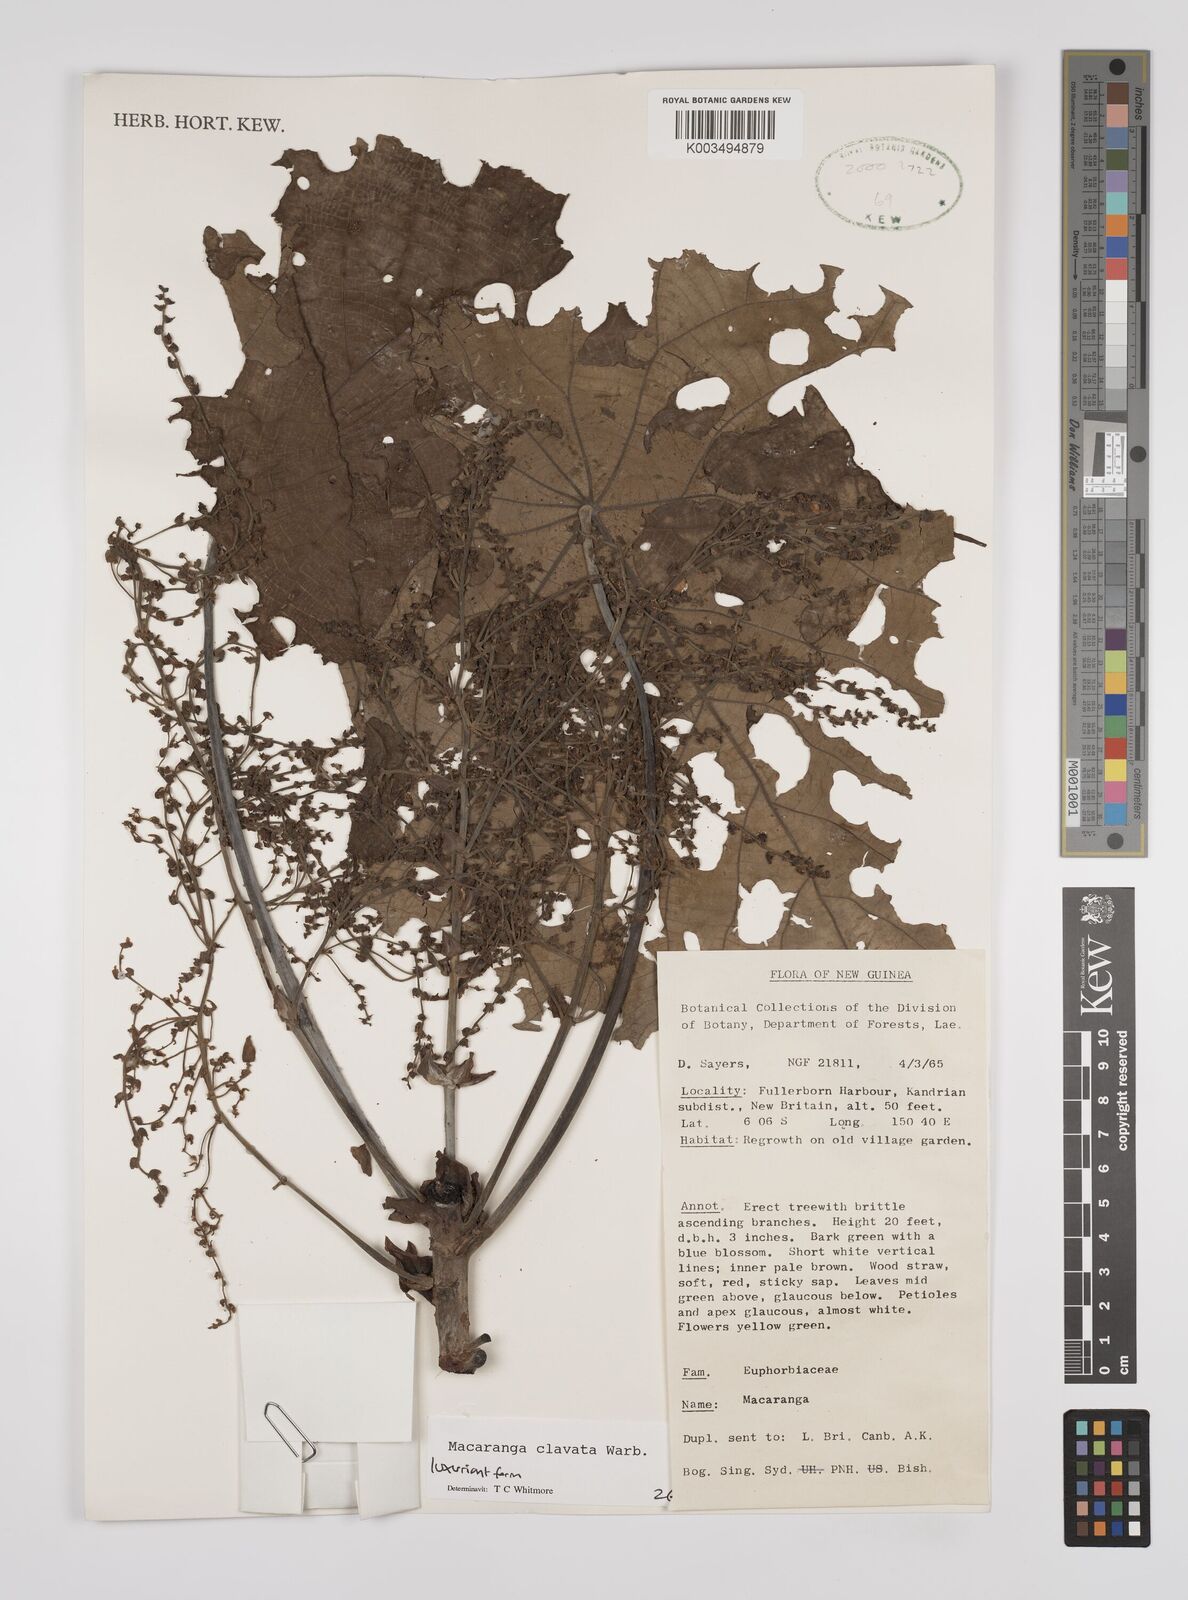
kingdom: Plantae
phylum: Tracheophyta
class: Magnoliopsida
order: Malpighiales
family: Euphorbiaceae
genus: Macaranga
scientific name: Macaranga clavata
